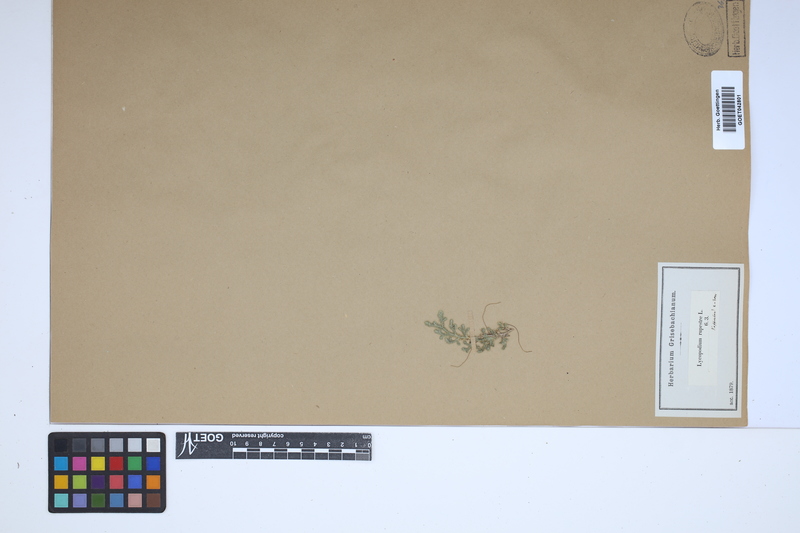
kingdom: Plantae
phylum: Tracheophyta
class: Lycopodiopsida
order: Selaginellales
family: Selaginellaceae
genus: Selaginella
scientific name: Selaginella rupestris
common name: Dwarf spikemoss
